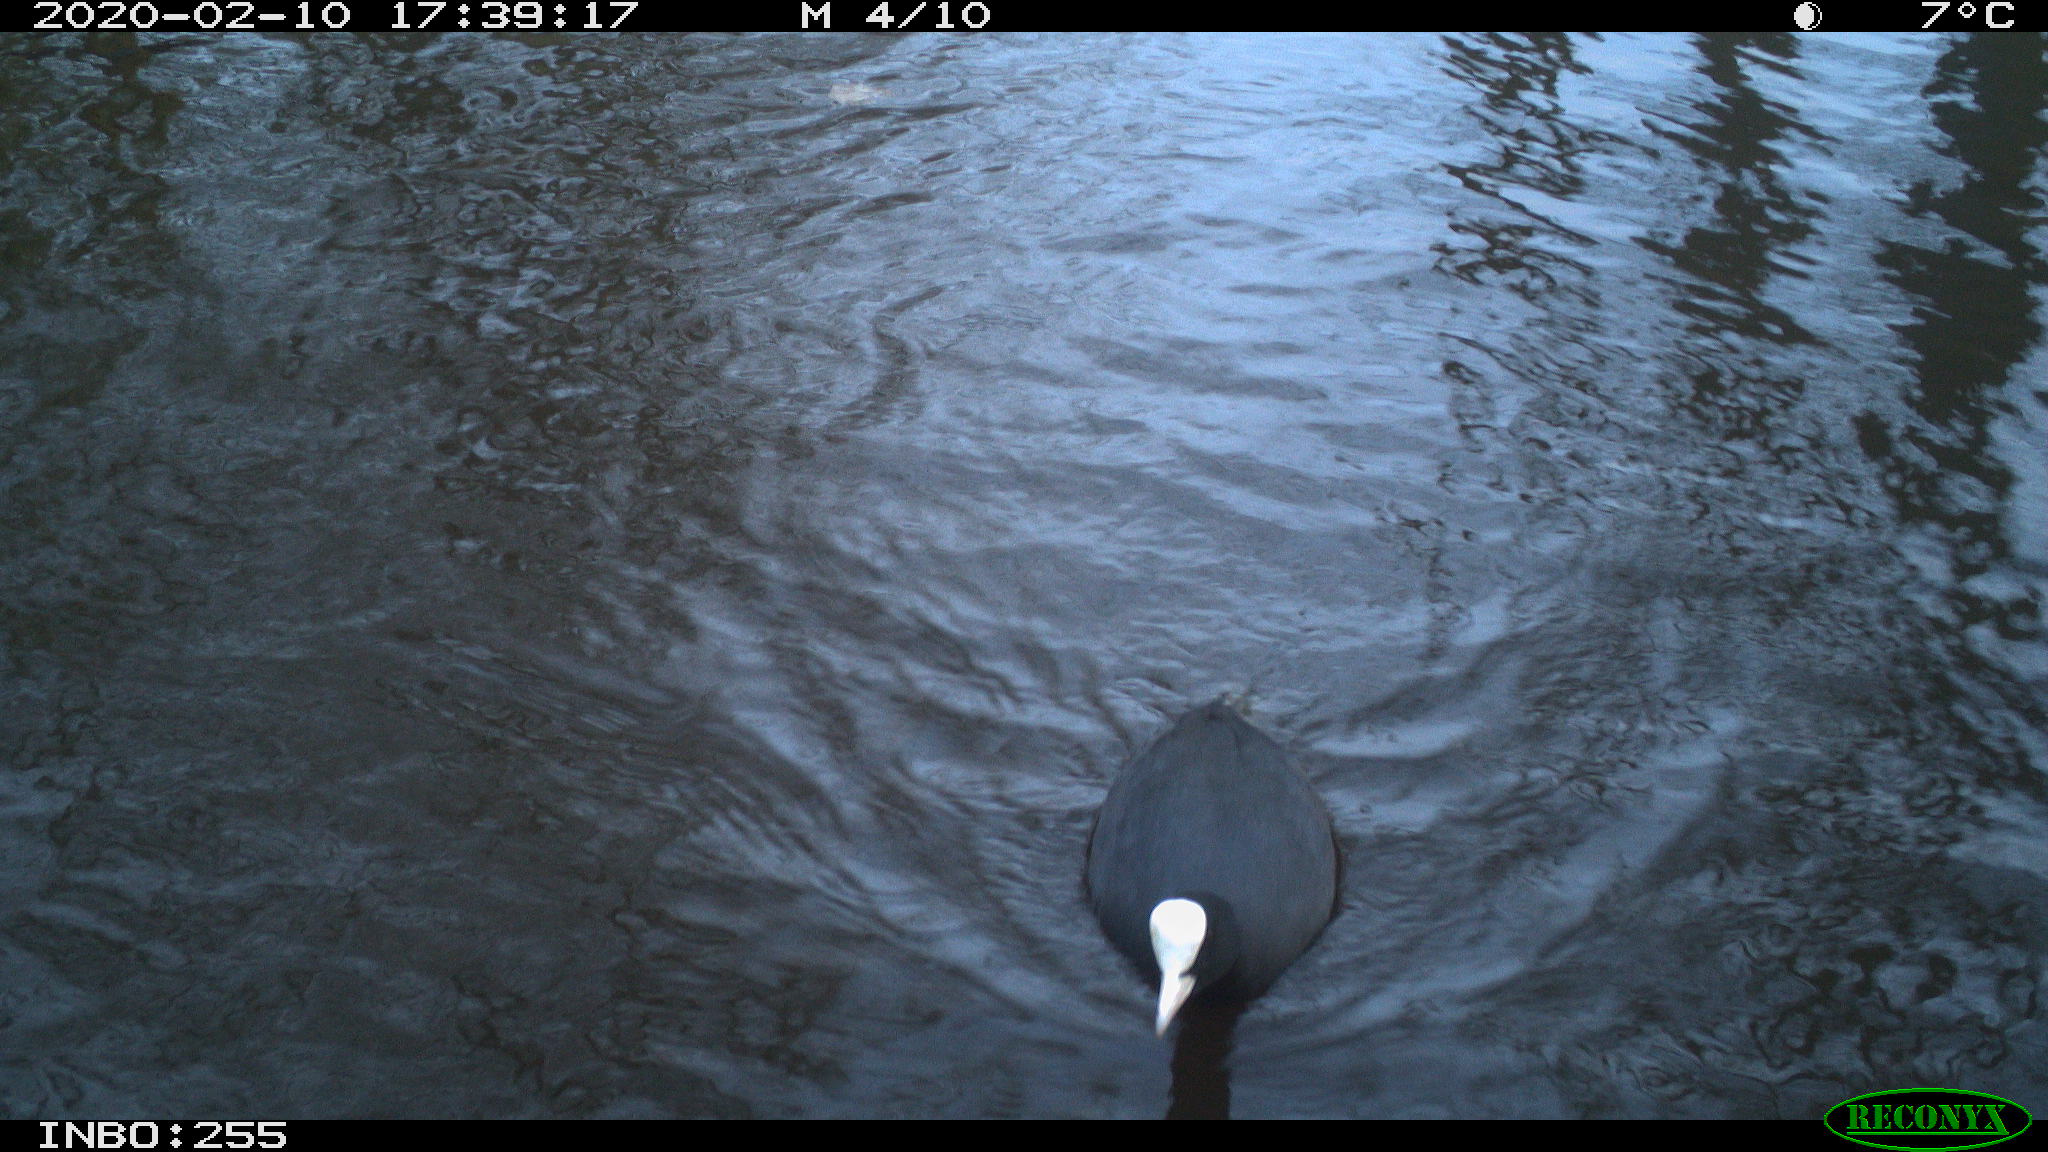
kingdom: Animalia
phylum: Chordata
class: Aves
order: Gruiformes
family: Rallidae
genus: Fulica
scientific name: Fulica atra
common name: Eurasian coot
